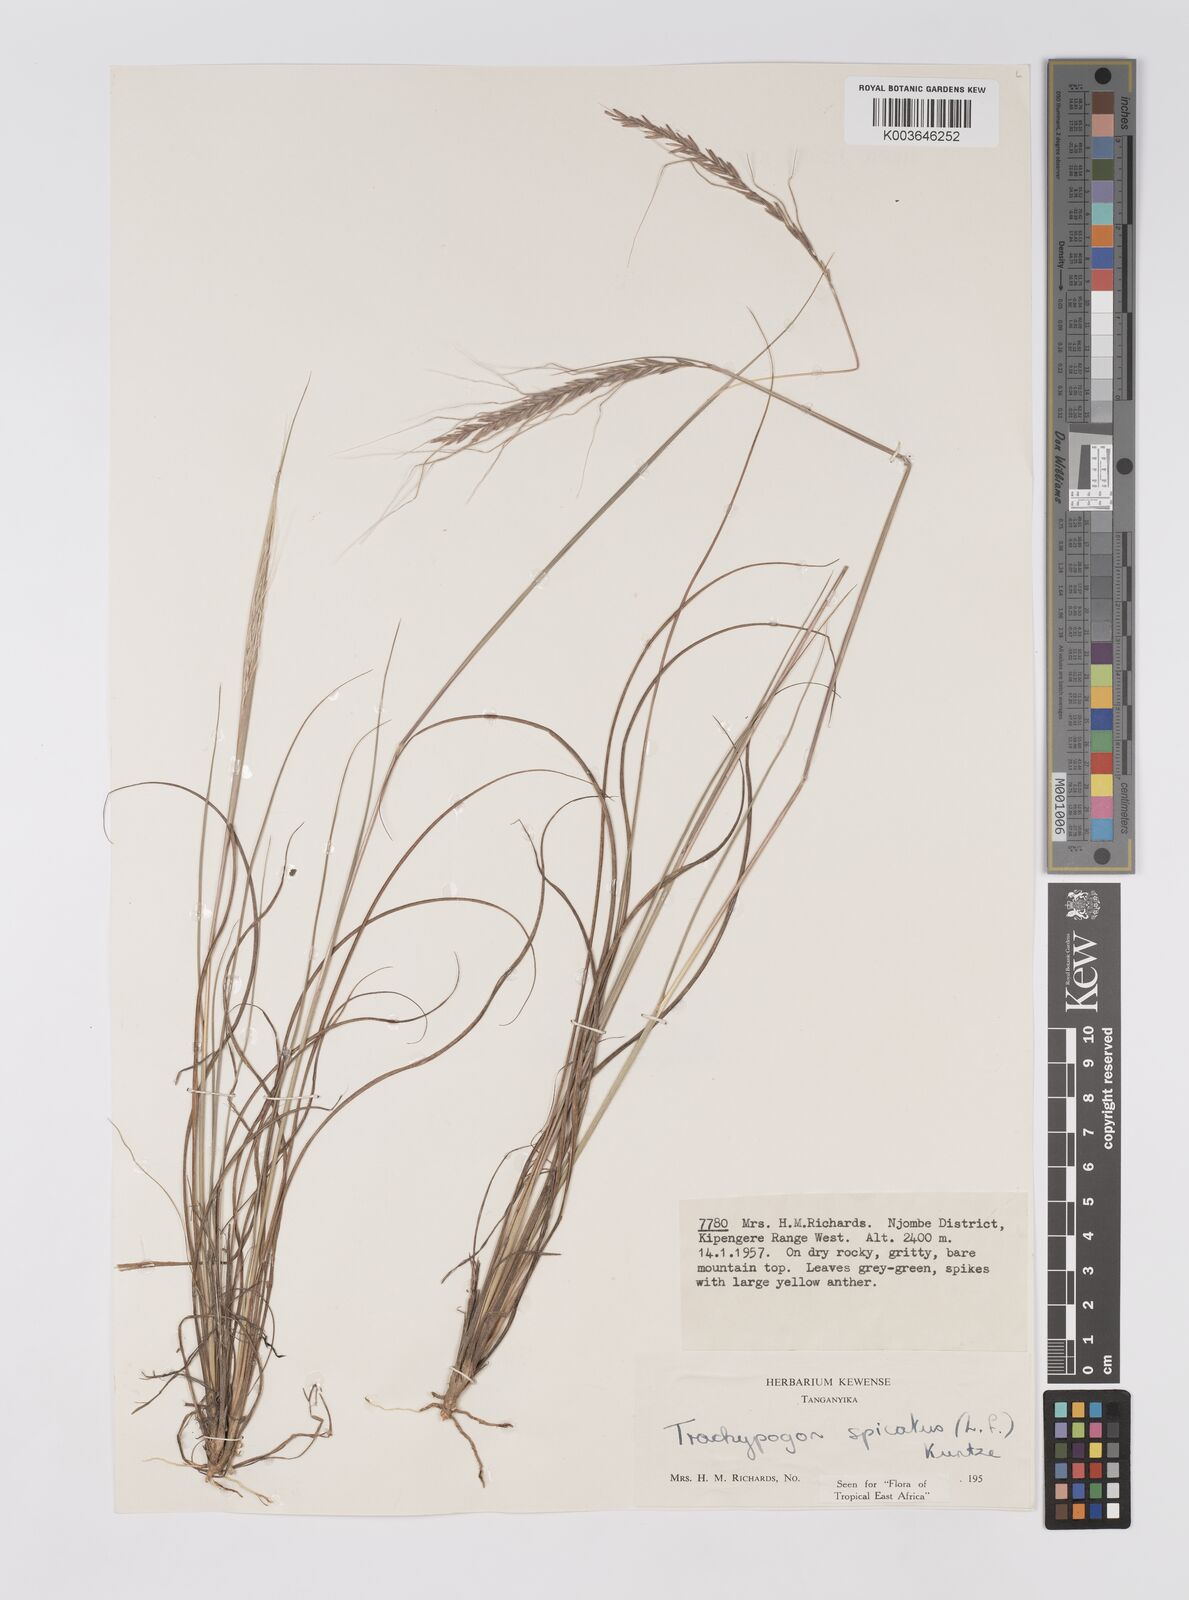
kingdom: Plantae
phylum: Tracheophyta
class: Liliopsida
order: Poales
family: Poaceae
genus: Trachypogon
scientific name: Trachypogon spicatus
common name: Crinkle-awn
